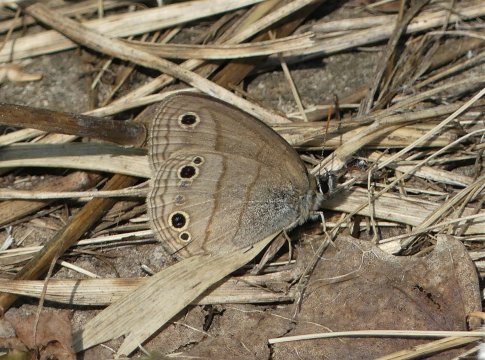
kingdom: Animalia
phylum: Arthropoda
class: Insecta
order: Lepidoptera
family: Nymphalidae
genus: Euptychia
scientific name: Euptychia cymela
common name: Little Wood Satyr
